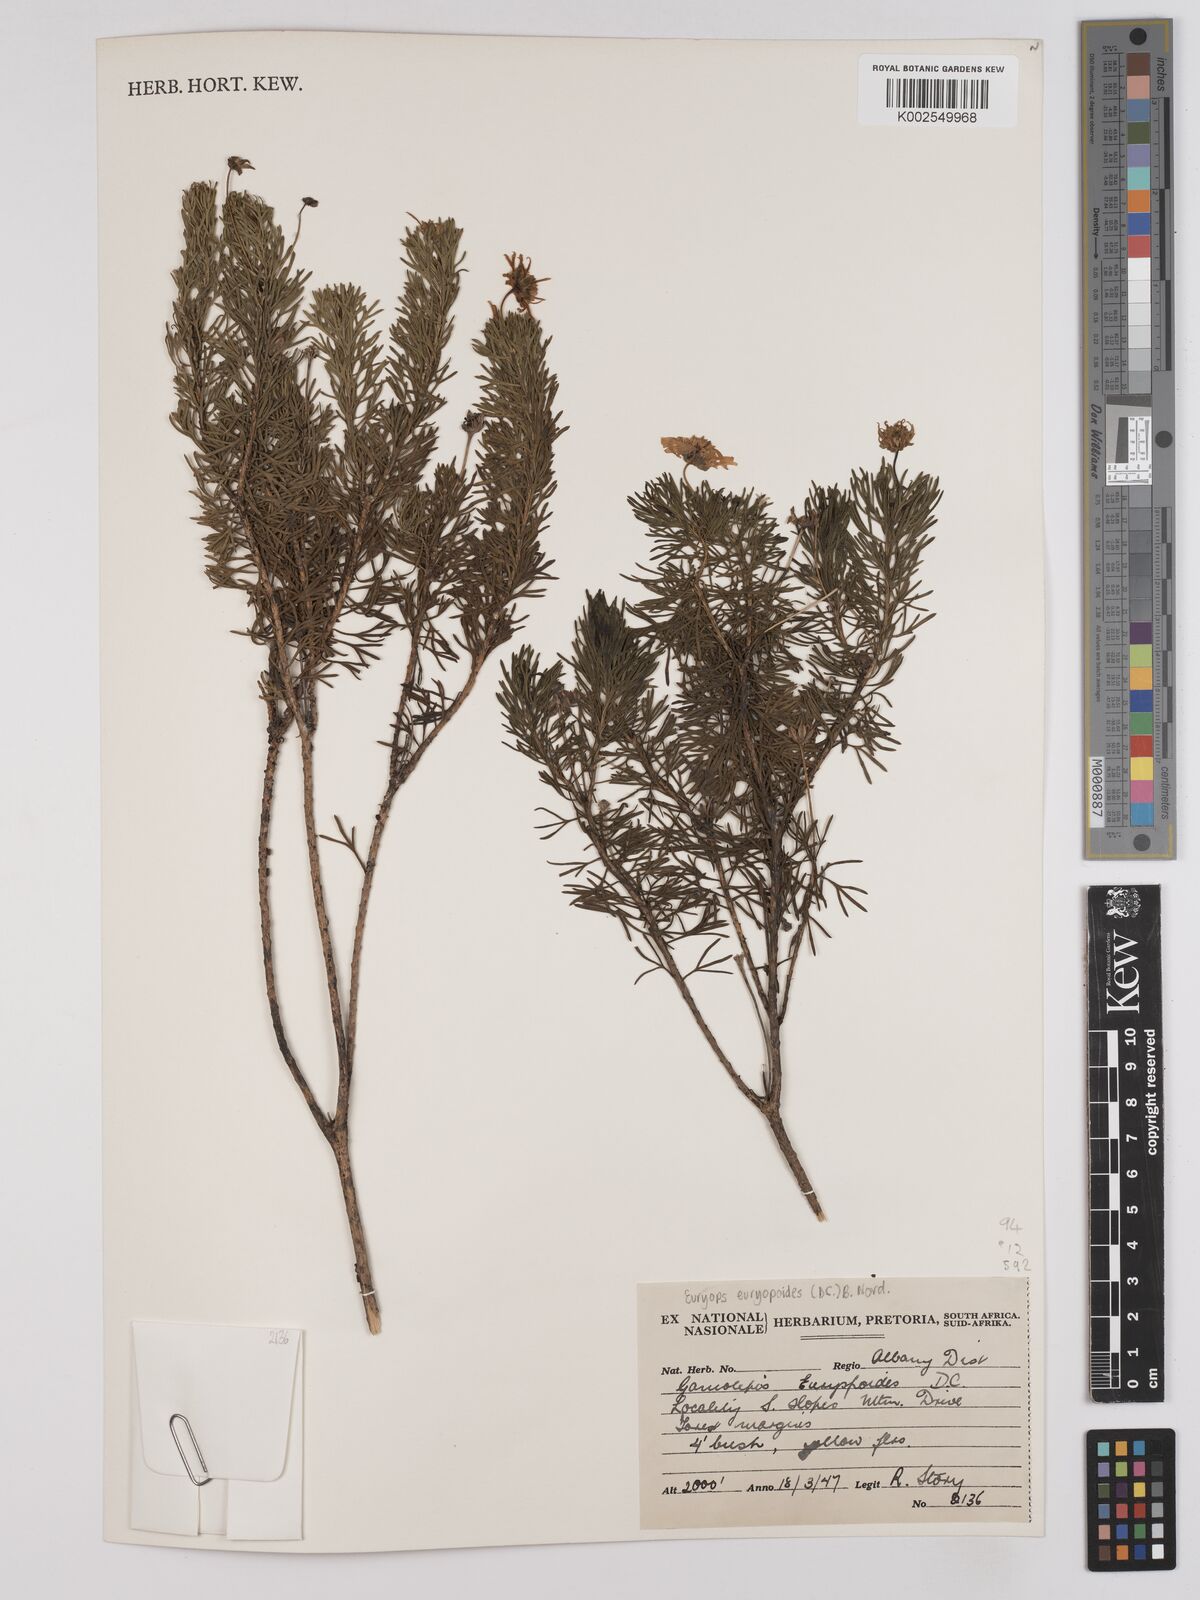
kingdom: Plantae
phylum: Tracheophyta
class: Magnoliopsida
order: Asterales
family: Asteraceae
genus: Euryops
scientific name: Euryops euryopoides
